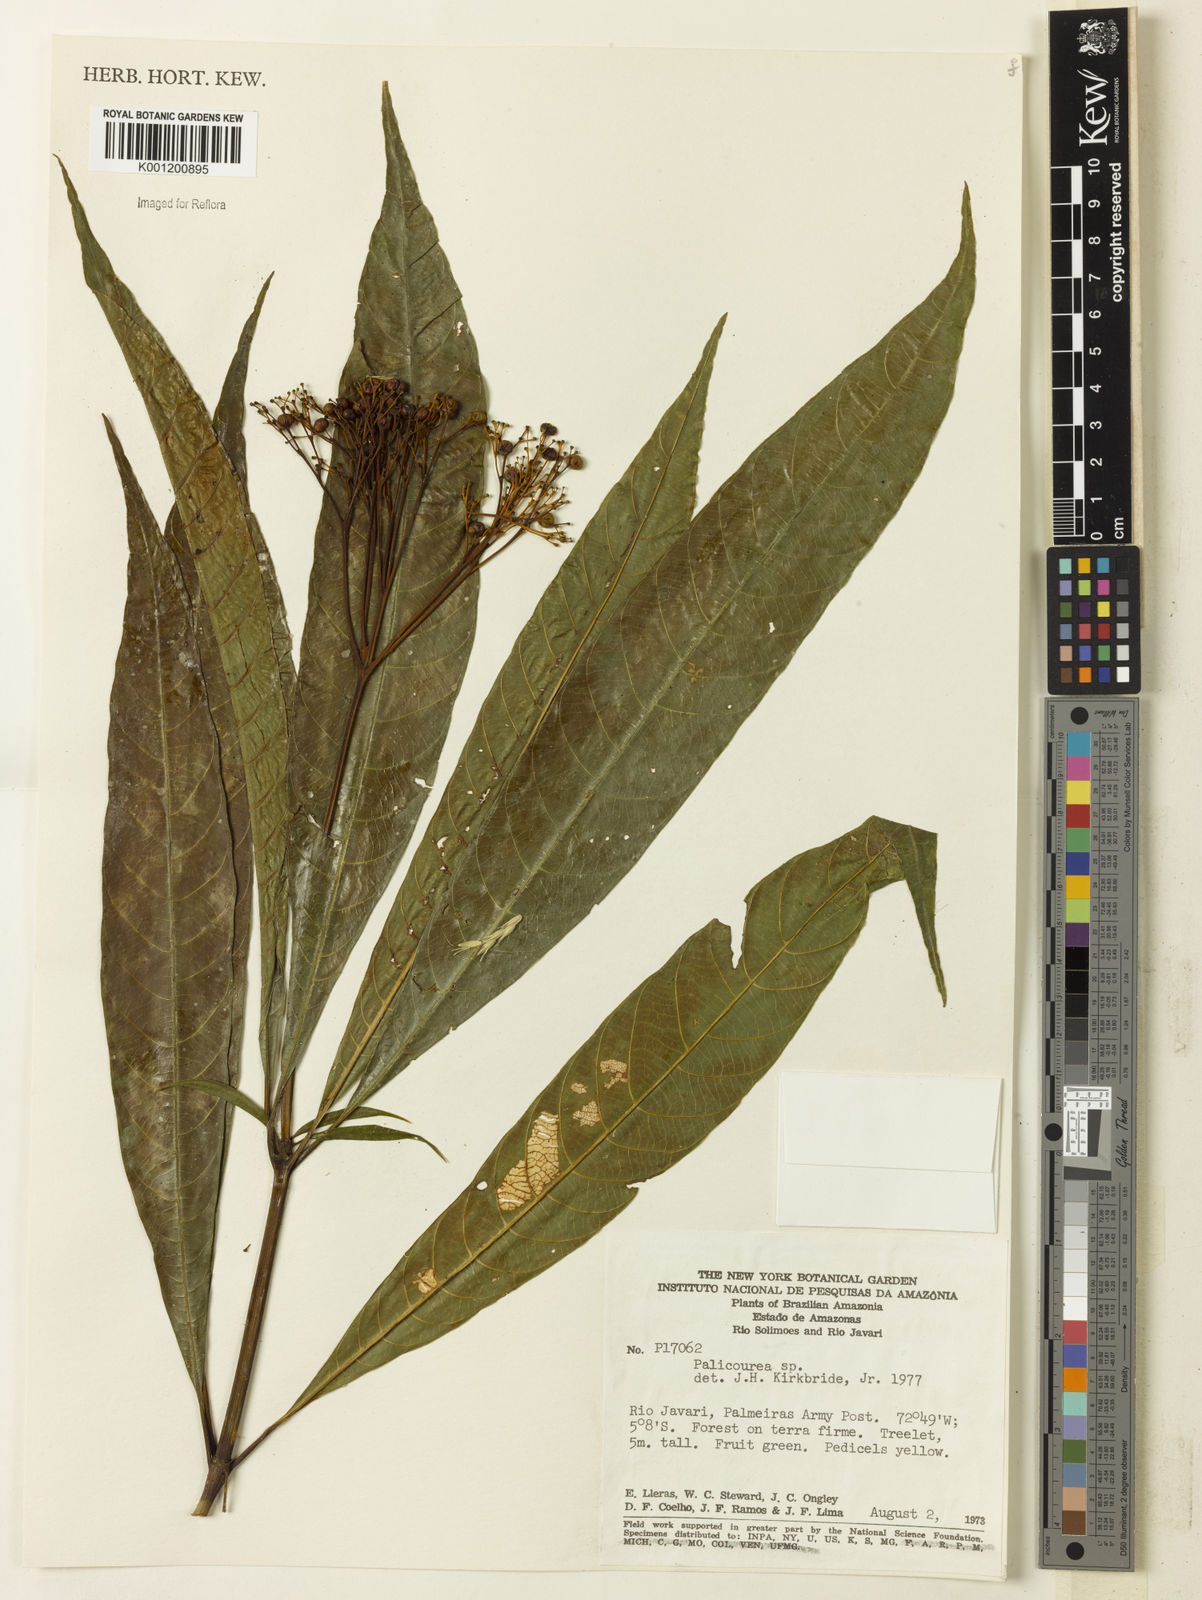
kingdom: Plantae
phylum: Tracheophyta
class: Magnoliopsida
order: Gentianales
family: Rubiaceae
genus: Palicourea
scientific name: Palicourea
